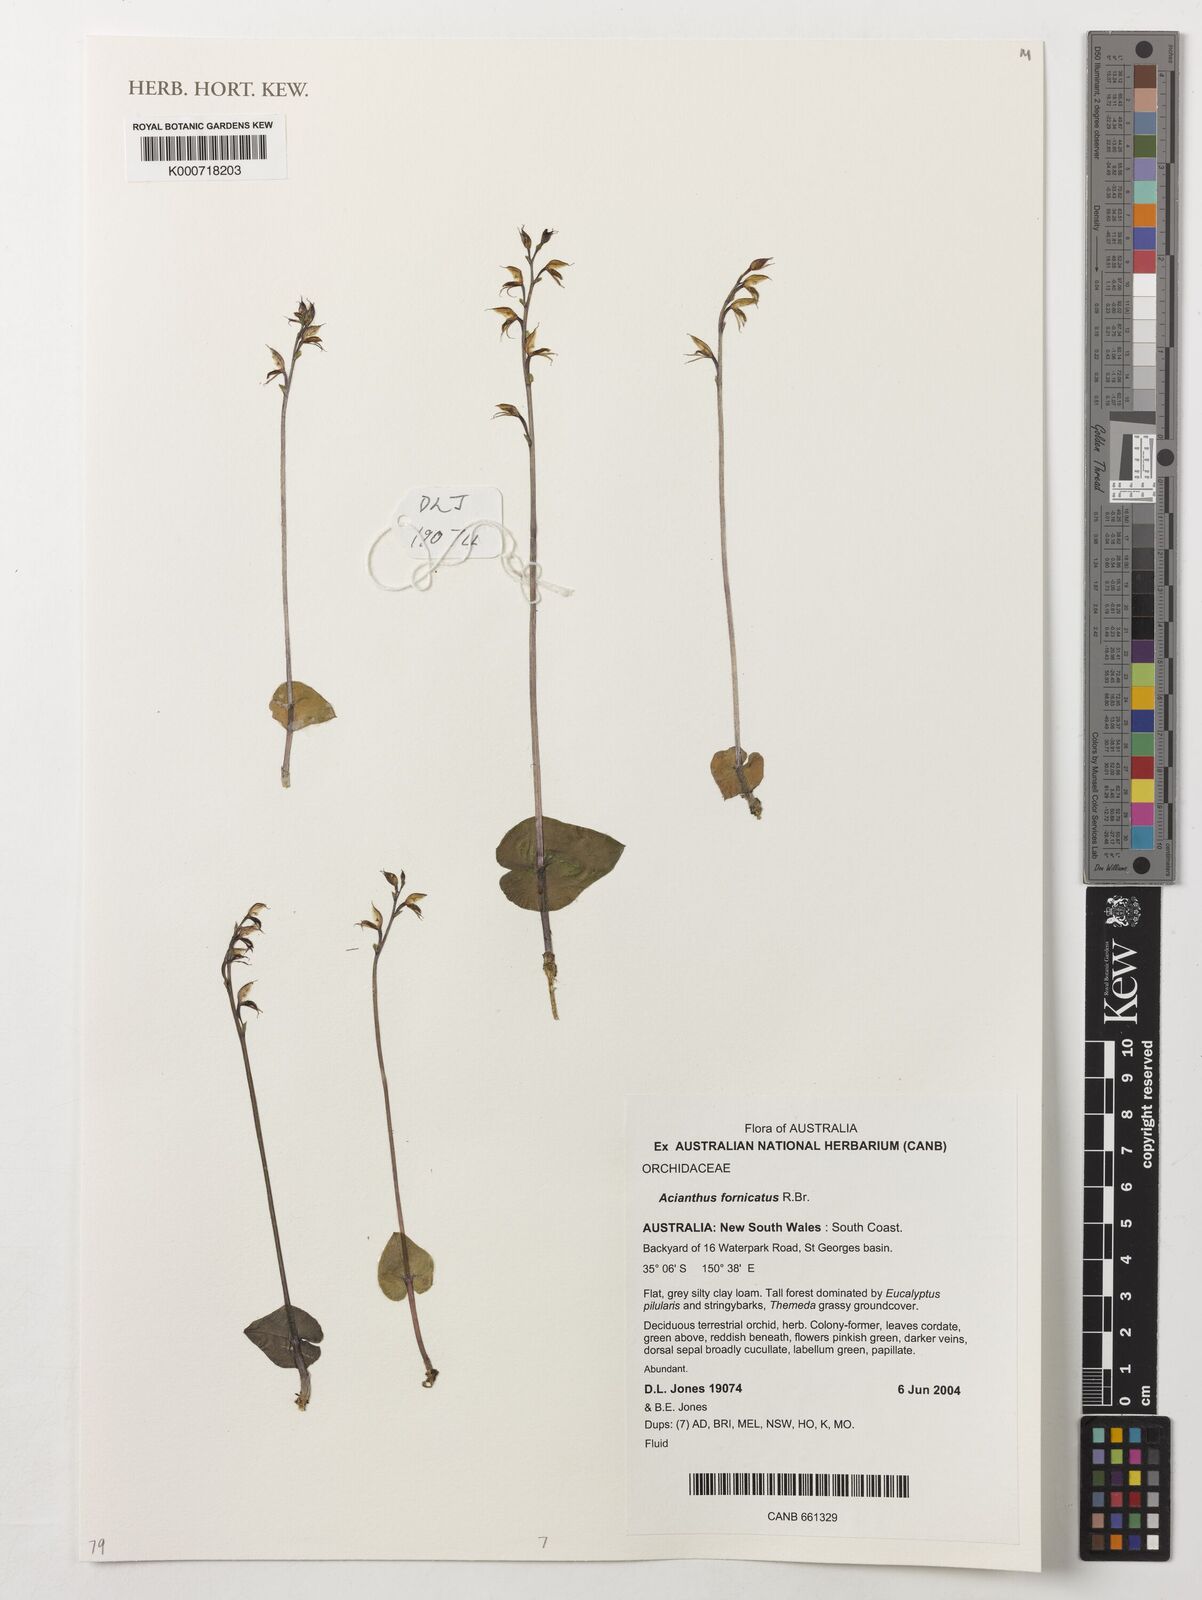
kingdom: Plantae
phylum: Tracheophyta
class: Liliopsida
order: Asparagales
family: Orchidaceae
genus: Acianthus
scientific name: Acianthus fornicatus
